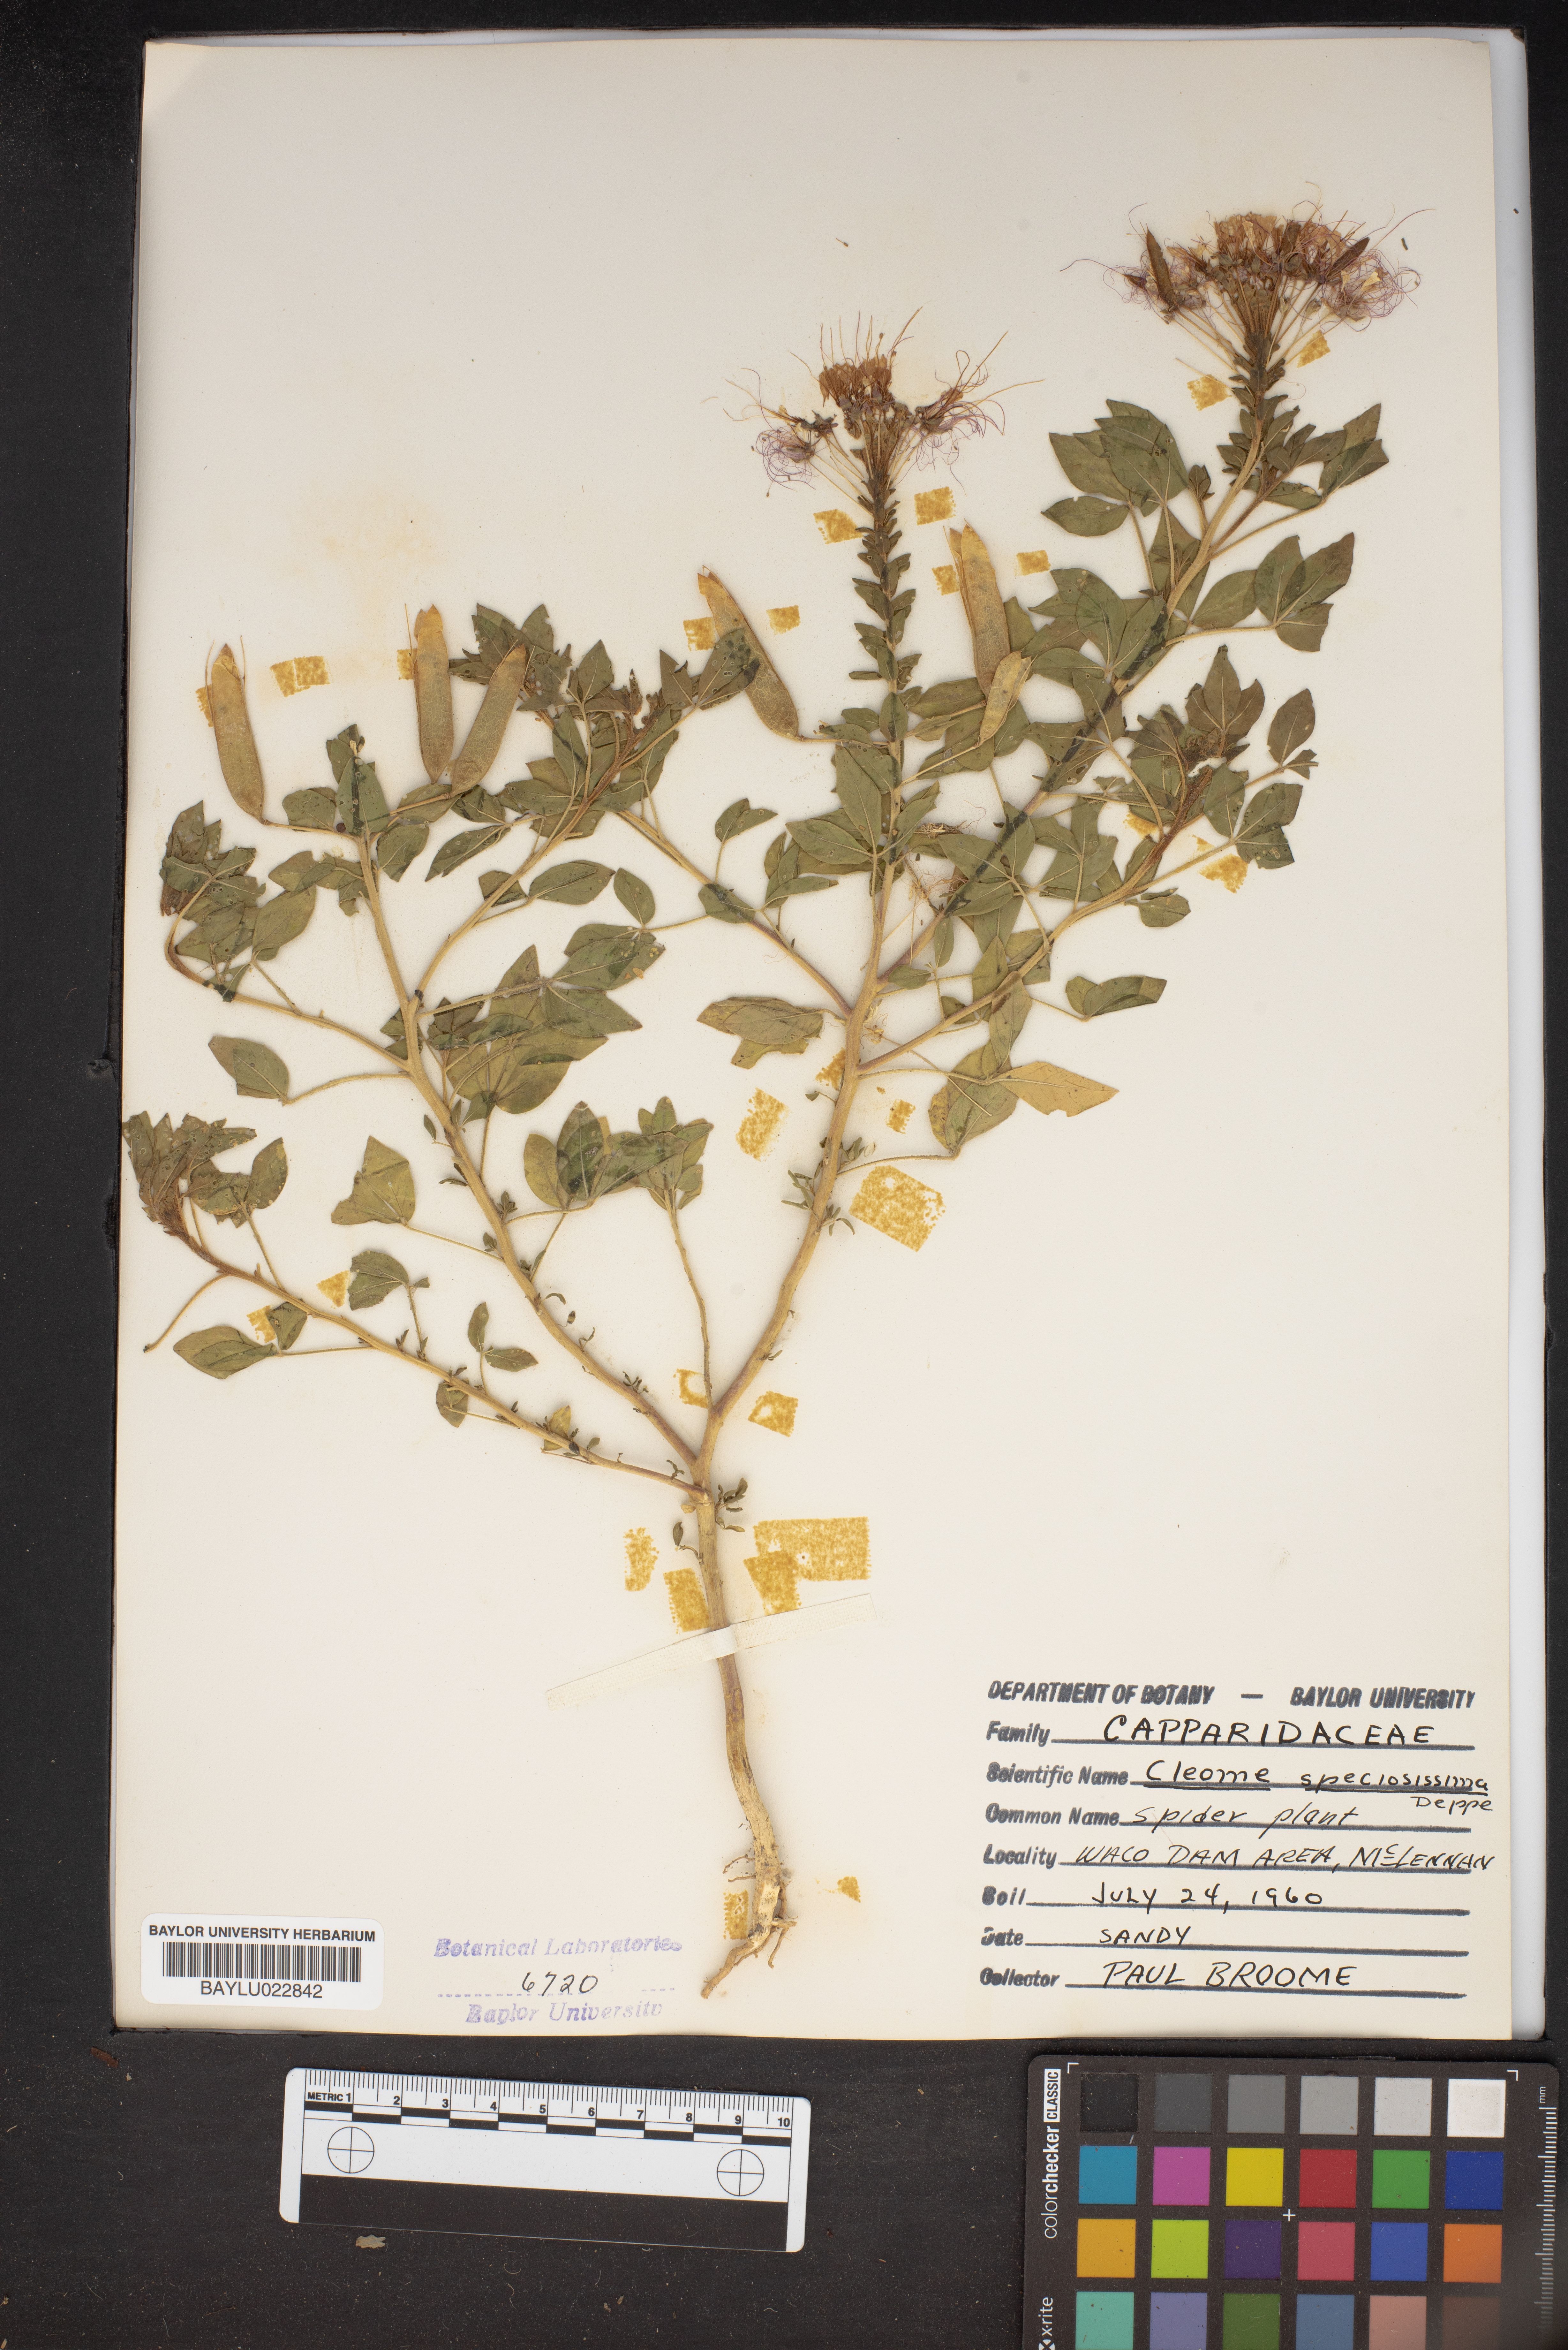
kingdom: Plantae
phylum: Tracheophyta
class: Magnoliopsida
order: Brassicales
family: Cleomaceae
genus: Cleoserrata
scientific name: Cleoserrata speciosa
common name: Volantines preciosos
